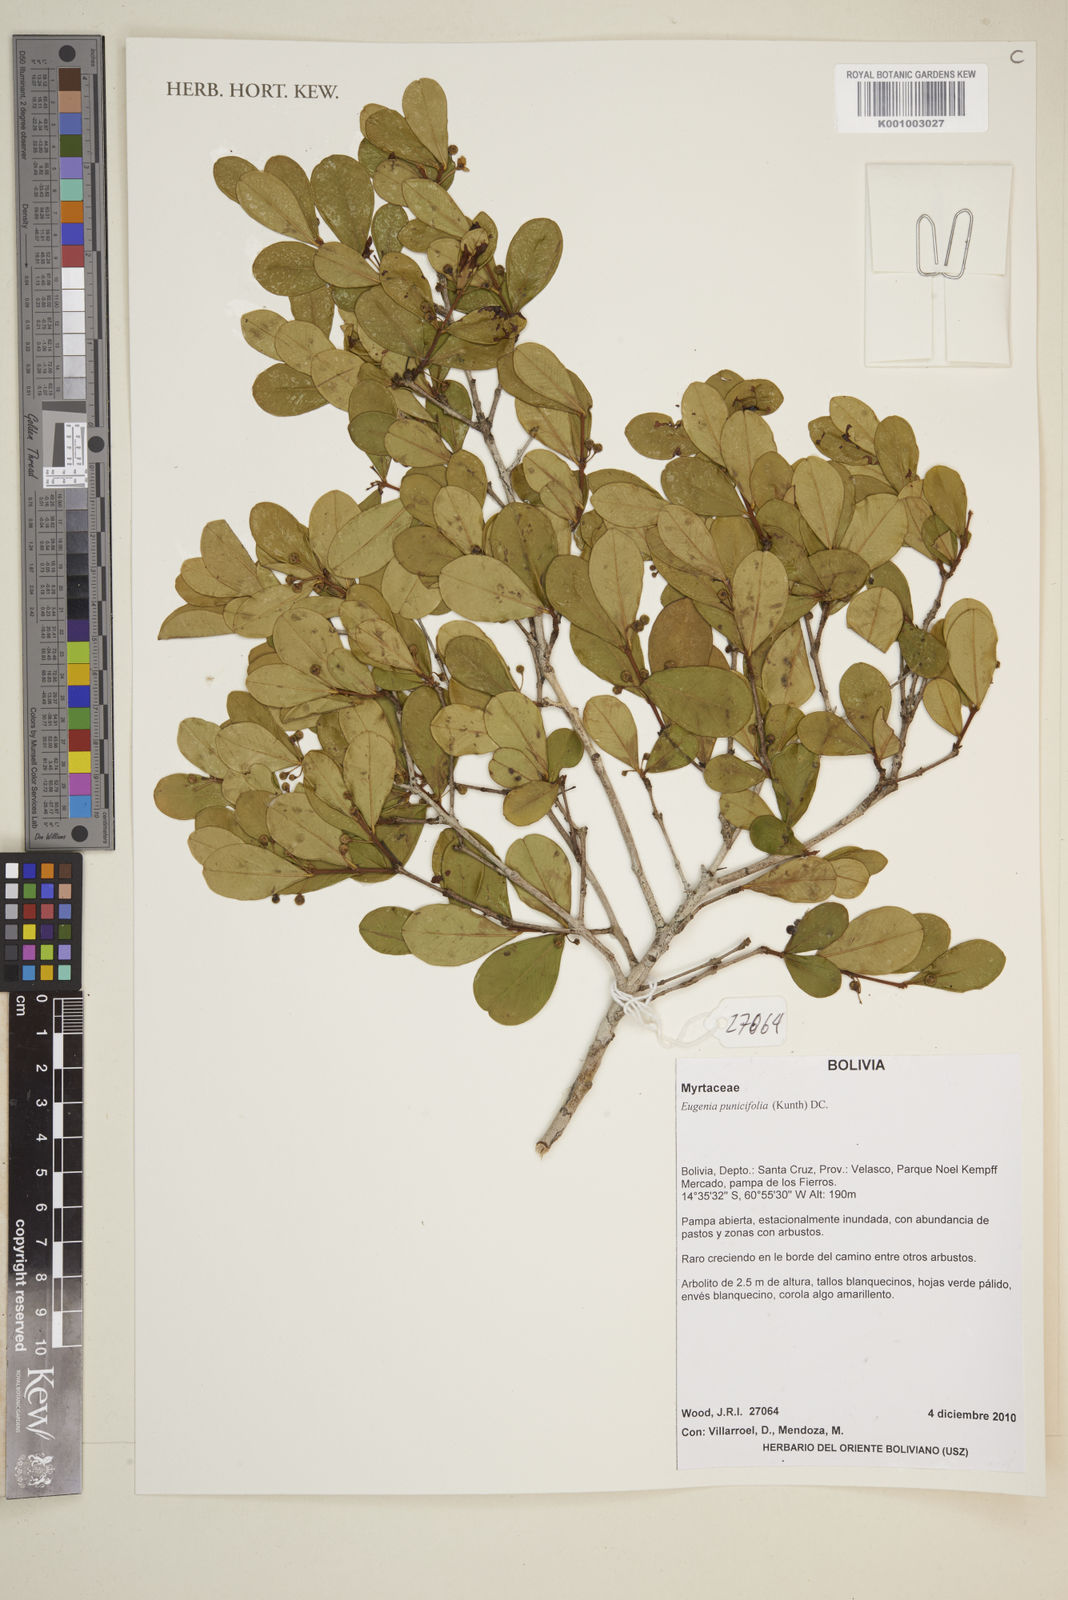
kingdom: Plantae
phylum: Tracheophyta
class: Magnoliopsida
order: Myrtales
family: Myrtaceae
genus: Eugenia
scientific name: Eugenia punicifolia
